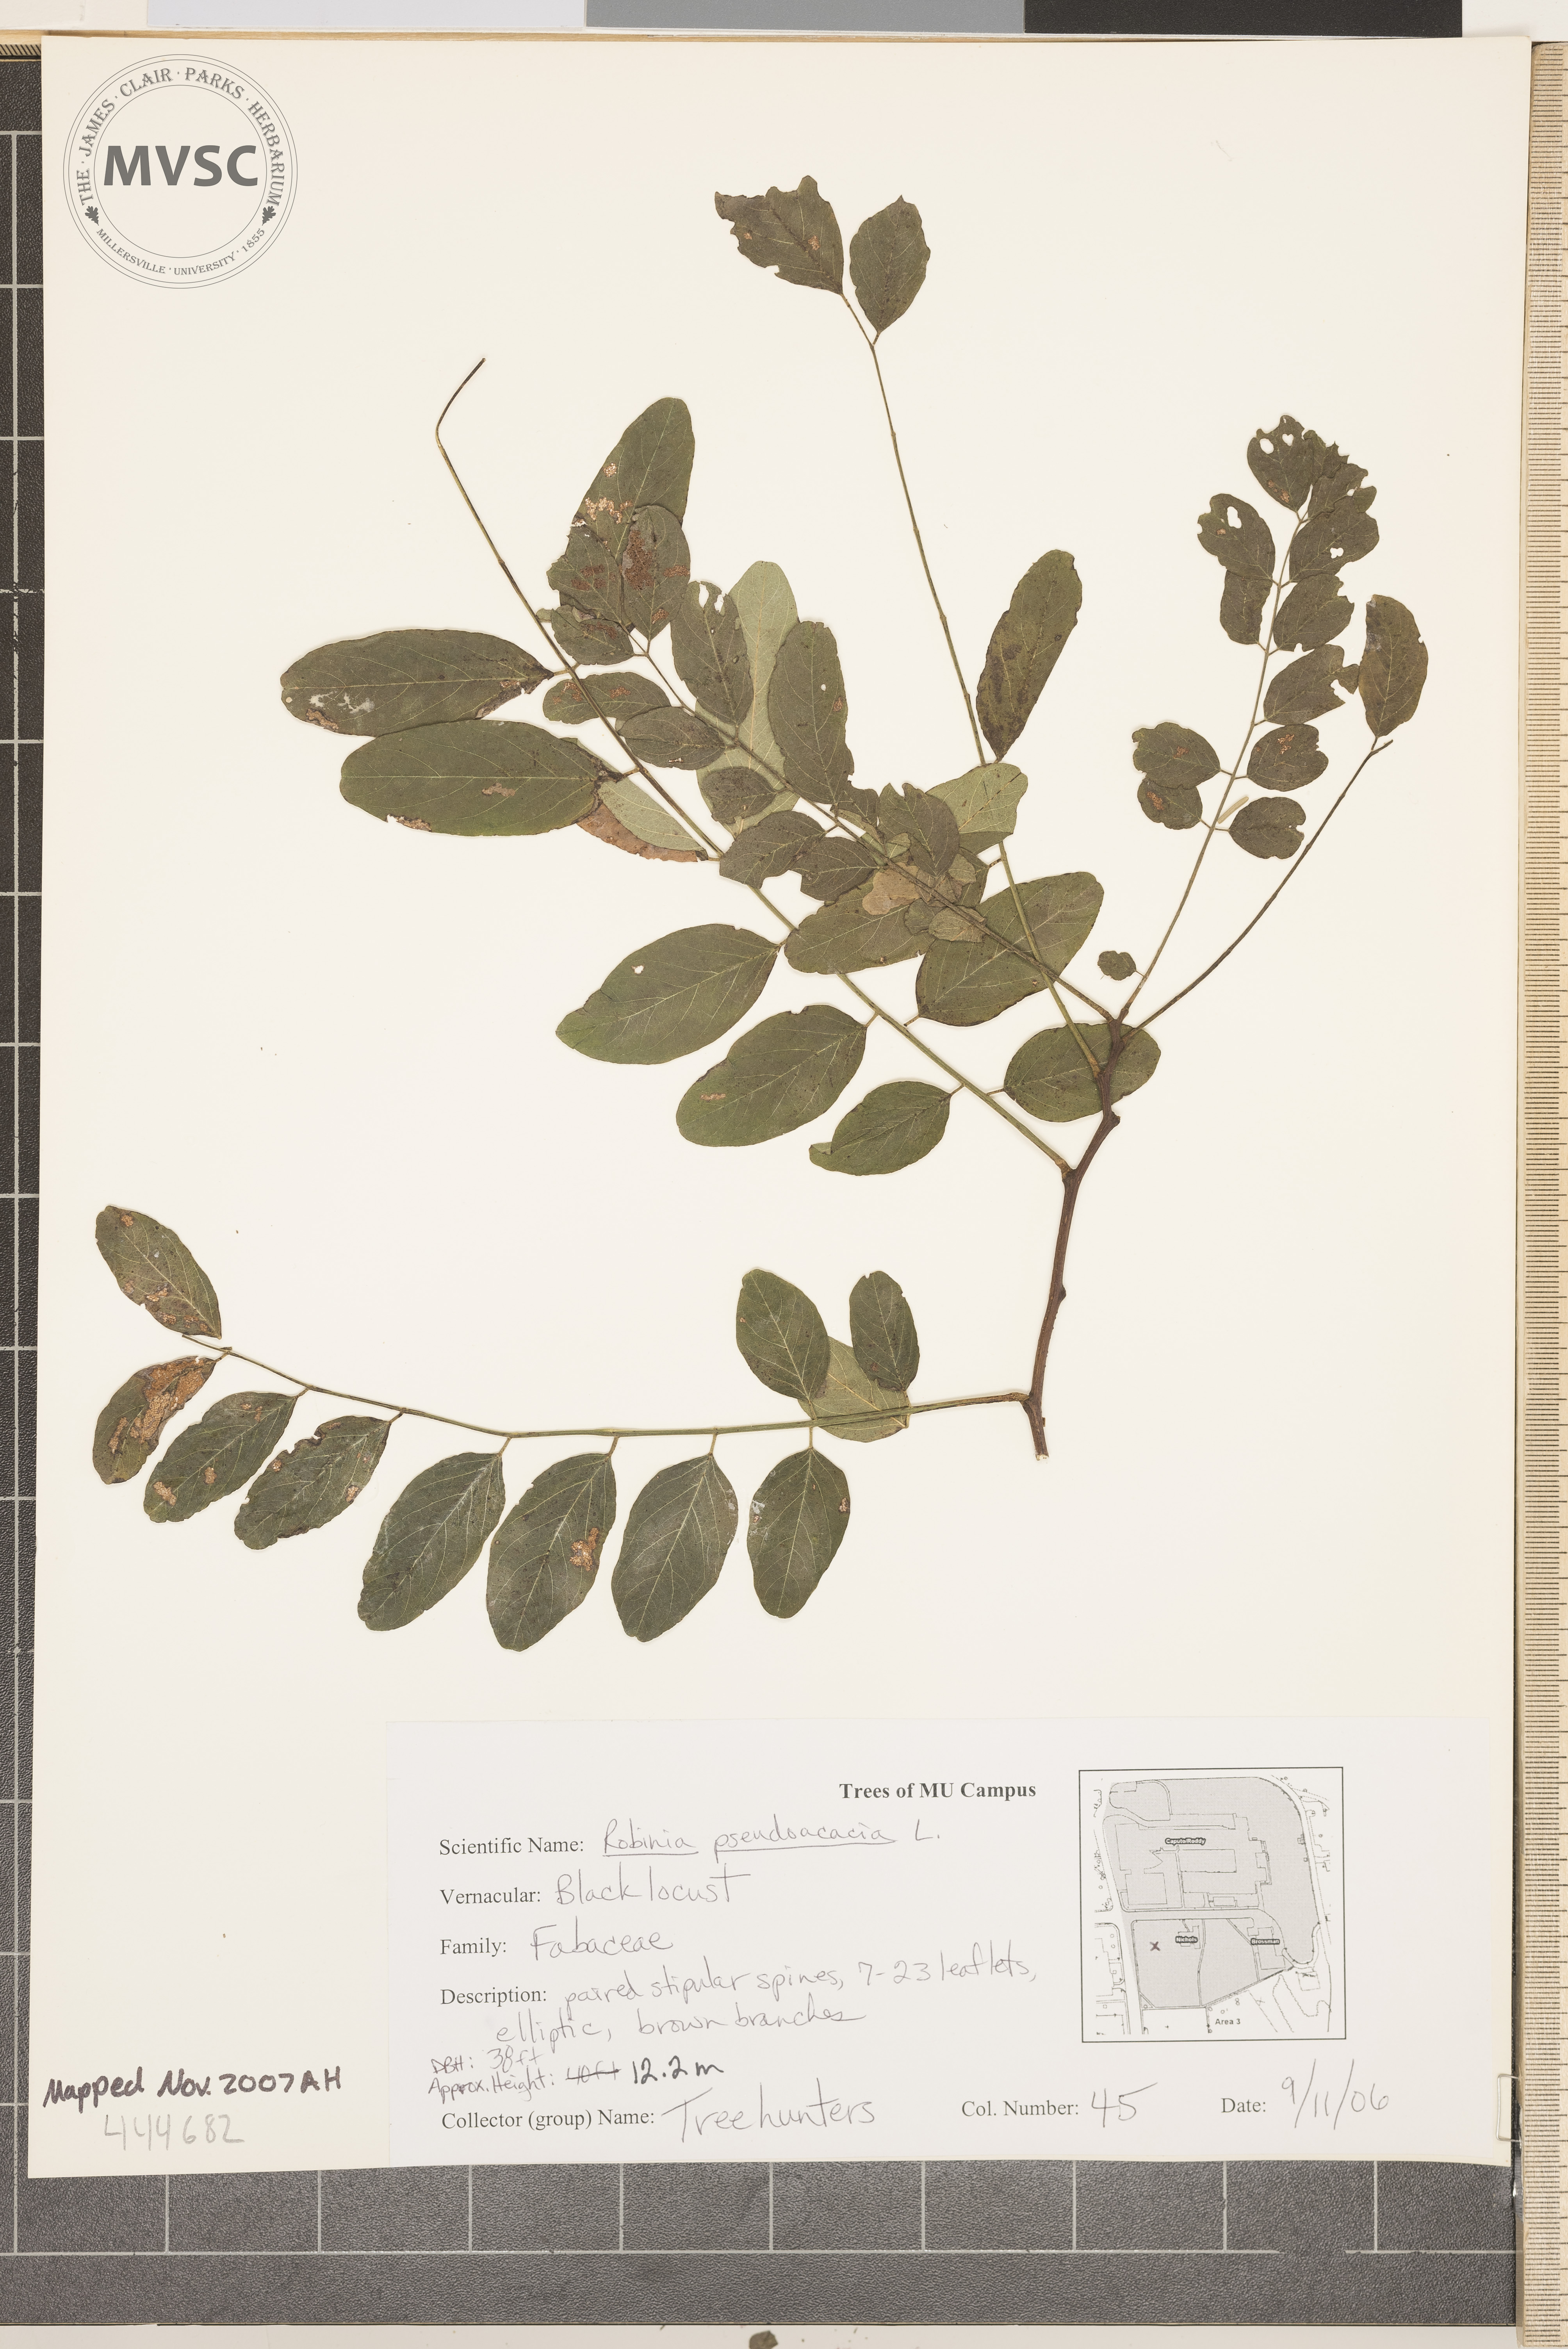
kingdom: Plantae
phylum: Tracheophyta
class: Magnoliopsida
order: Fabales
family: Fabaceae
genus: Robinia
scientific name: Robinia pseudoacacia
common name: Black Locust
